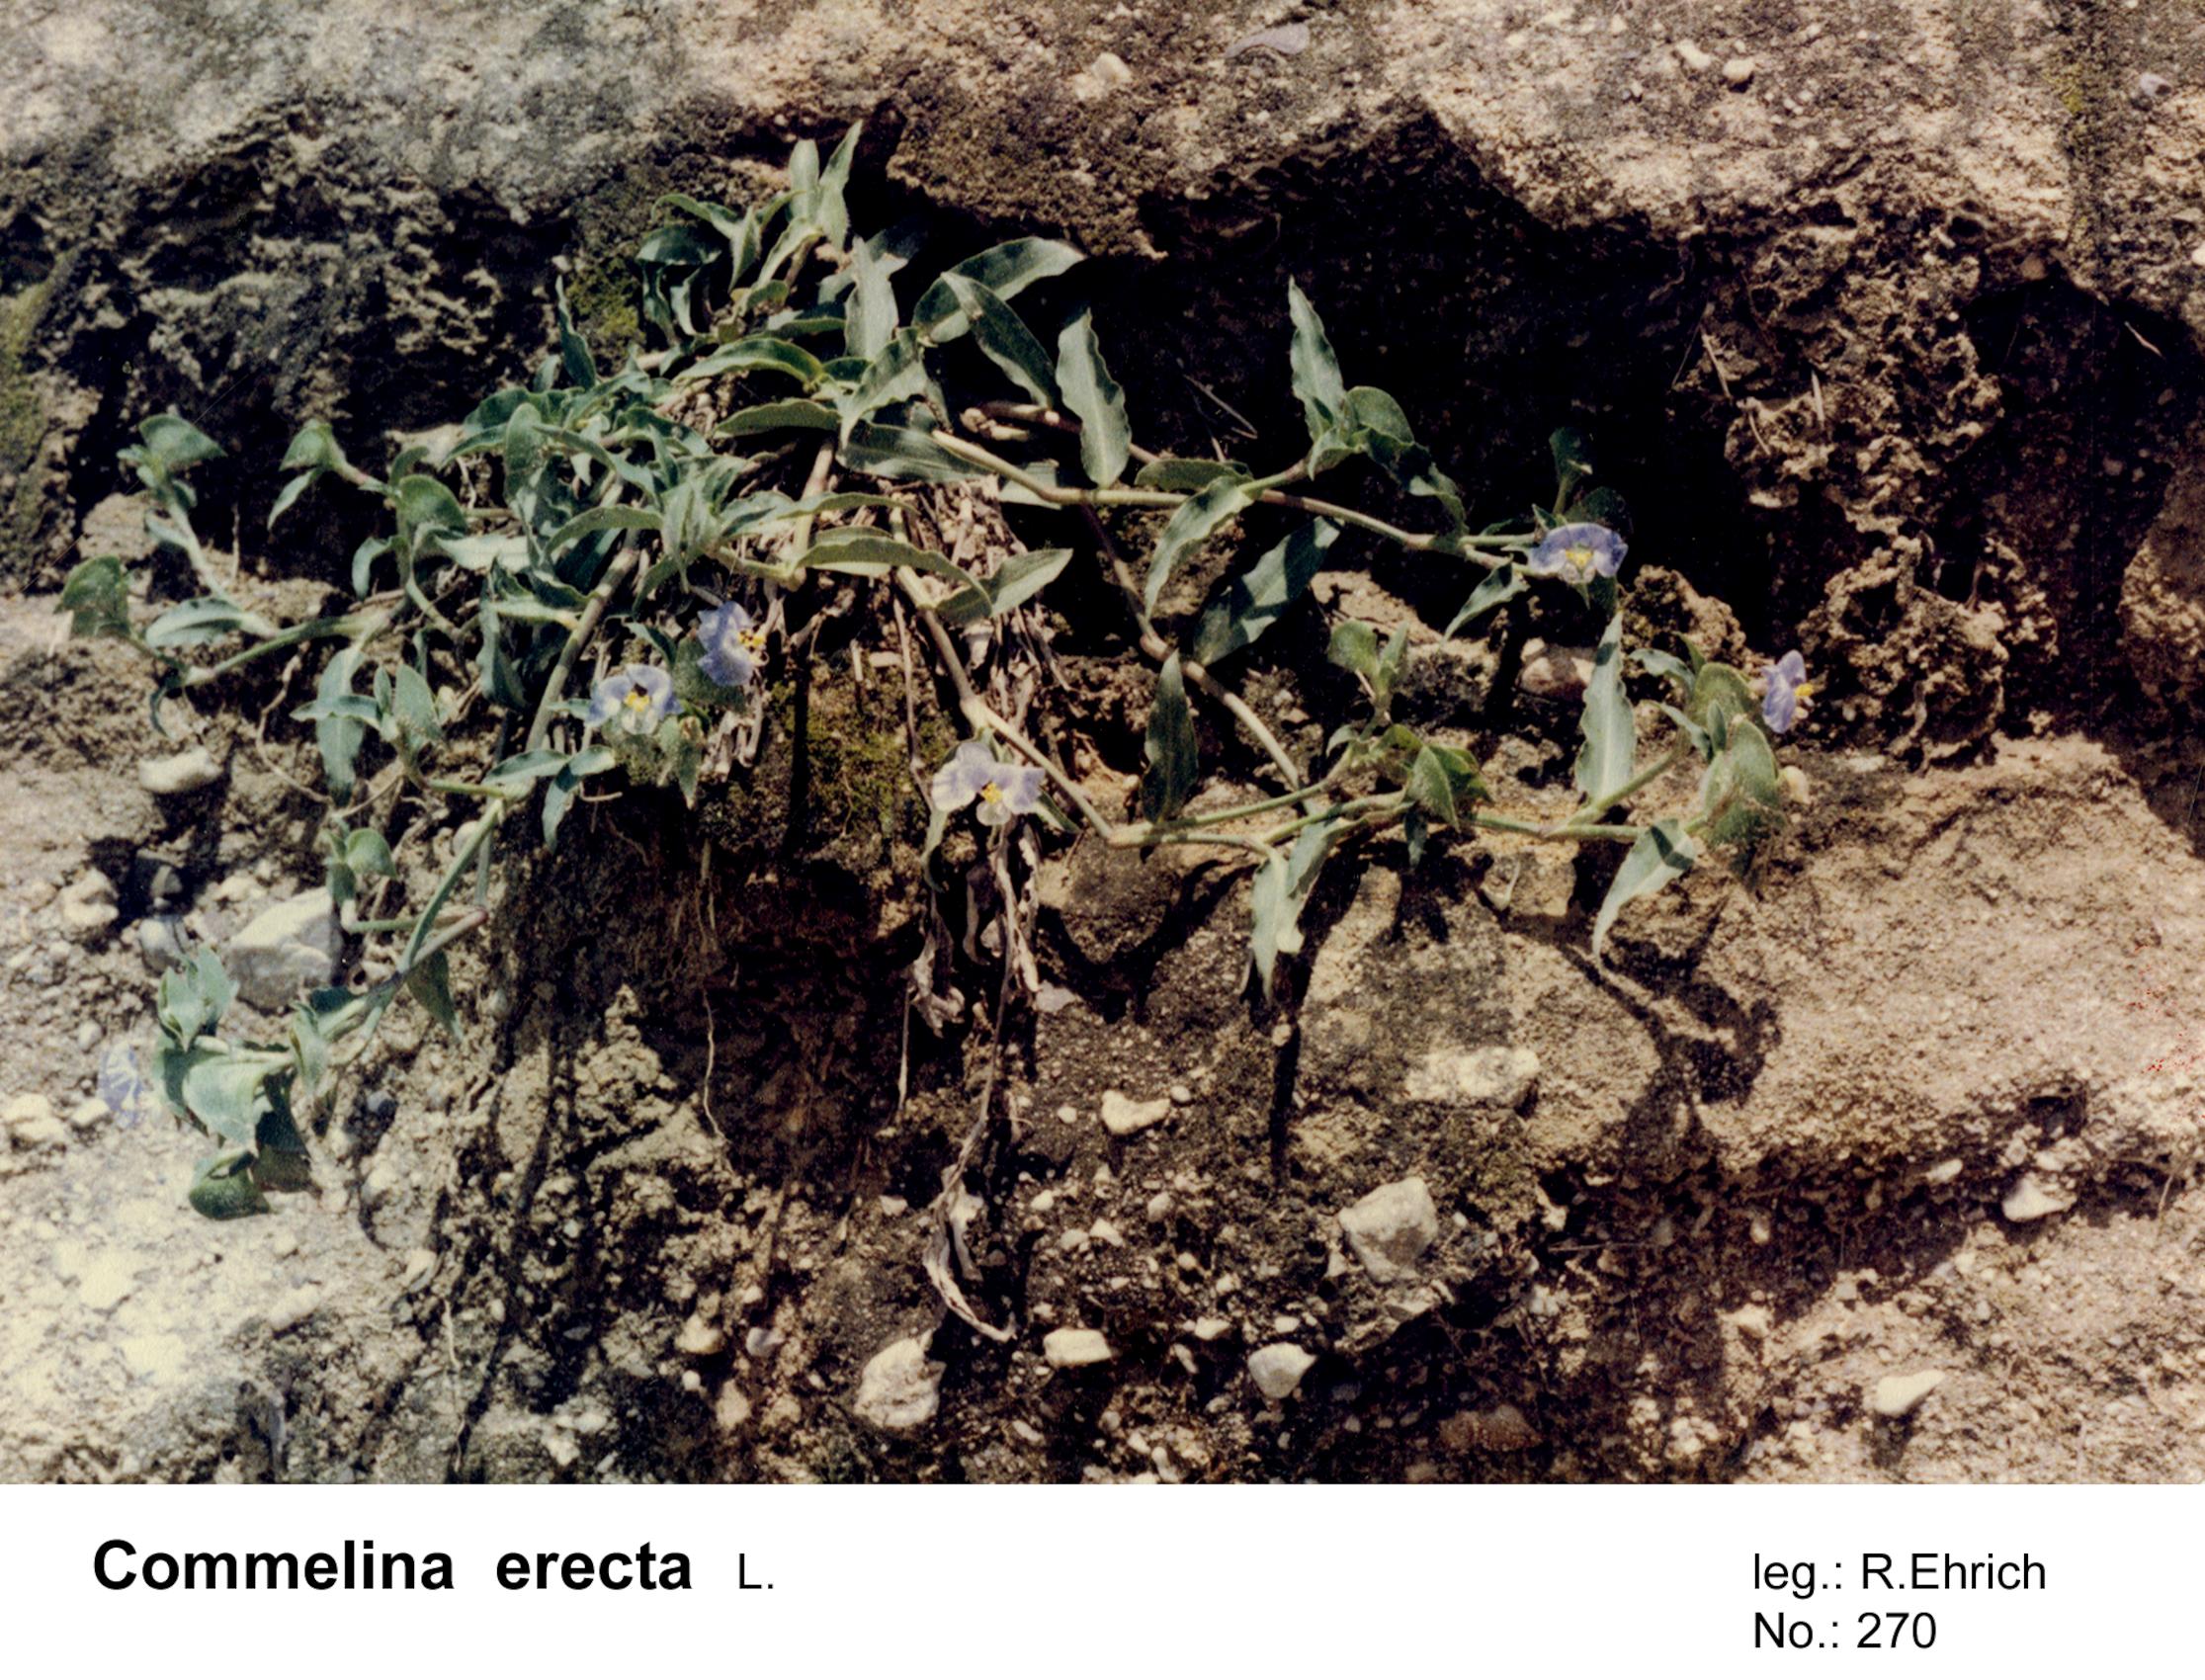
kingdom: Plantae
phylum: Tracheophyta
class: Liliopsida
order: Commelinales
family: Commelinaceae
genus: Commelina
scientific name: Commelina erecta
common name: Blousel blommetjie
